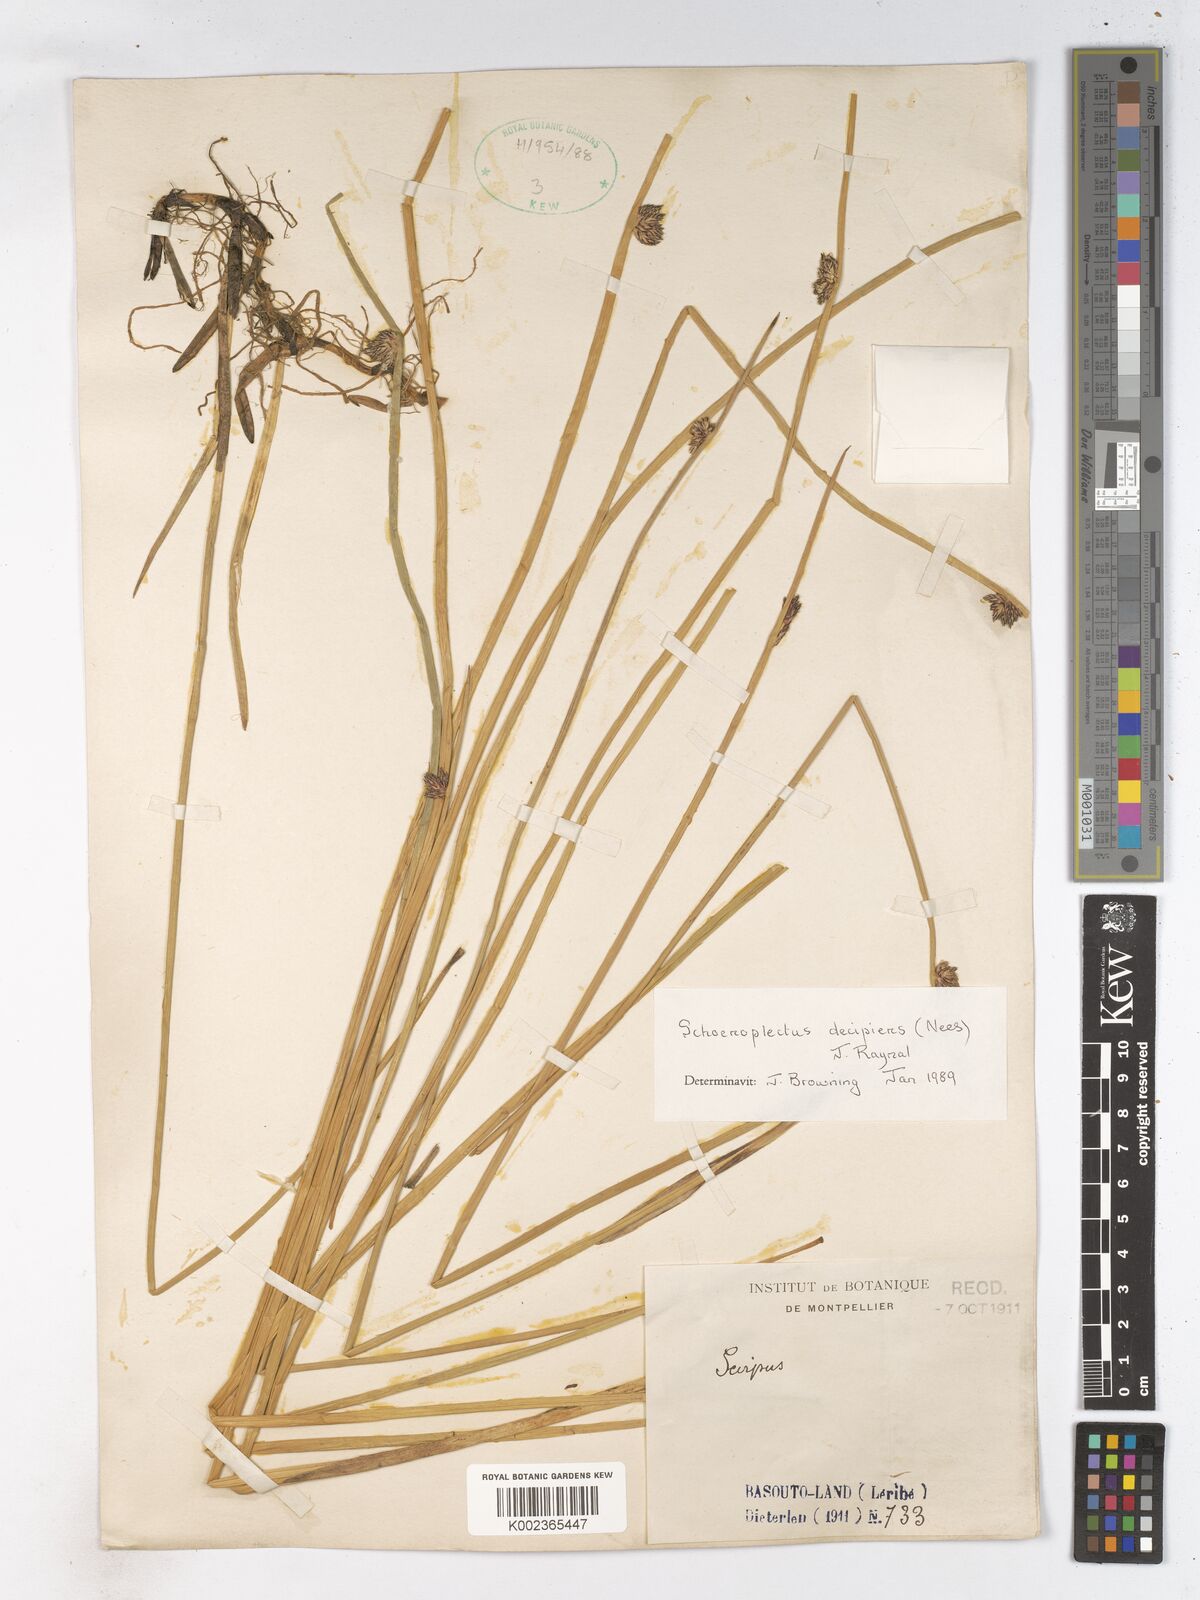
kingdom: Plantae
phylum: Tracheophyta
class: Liliopsida
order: Poales
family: Cyperaceae
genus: Schoenoplectiella
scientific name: Schoenoplectiella paludicola
